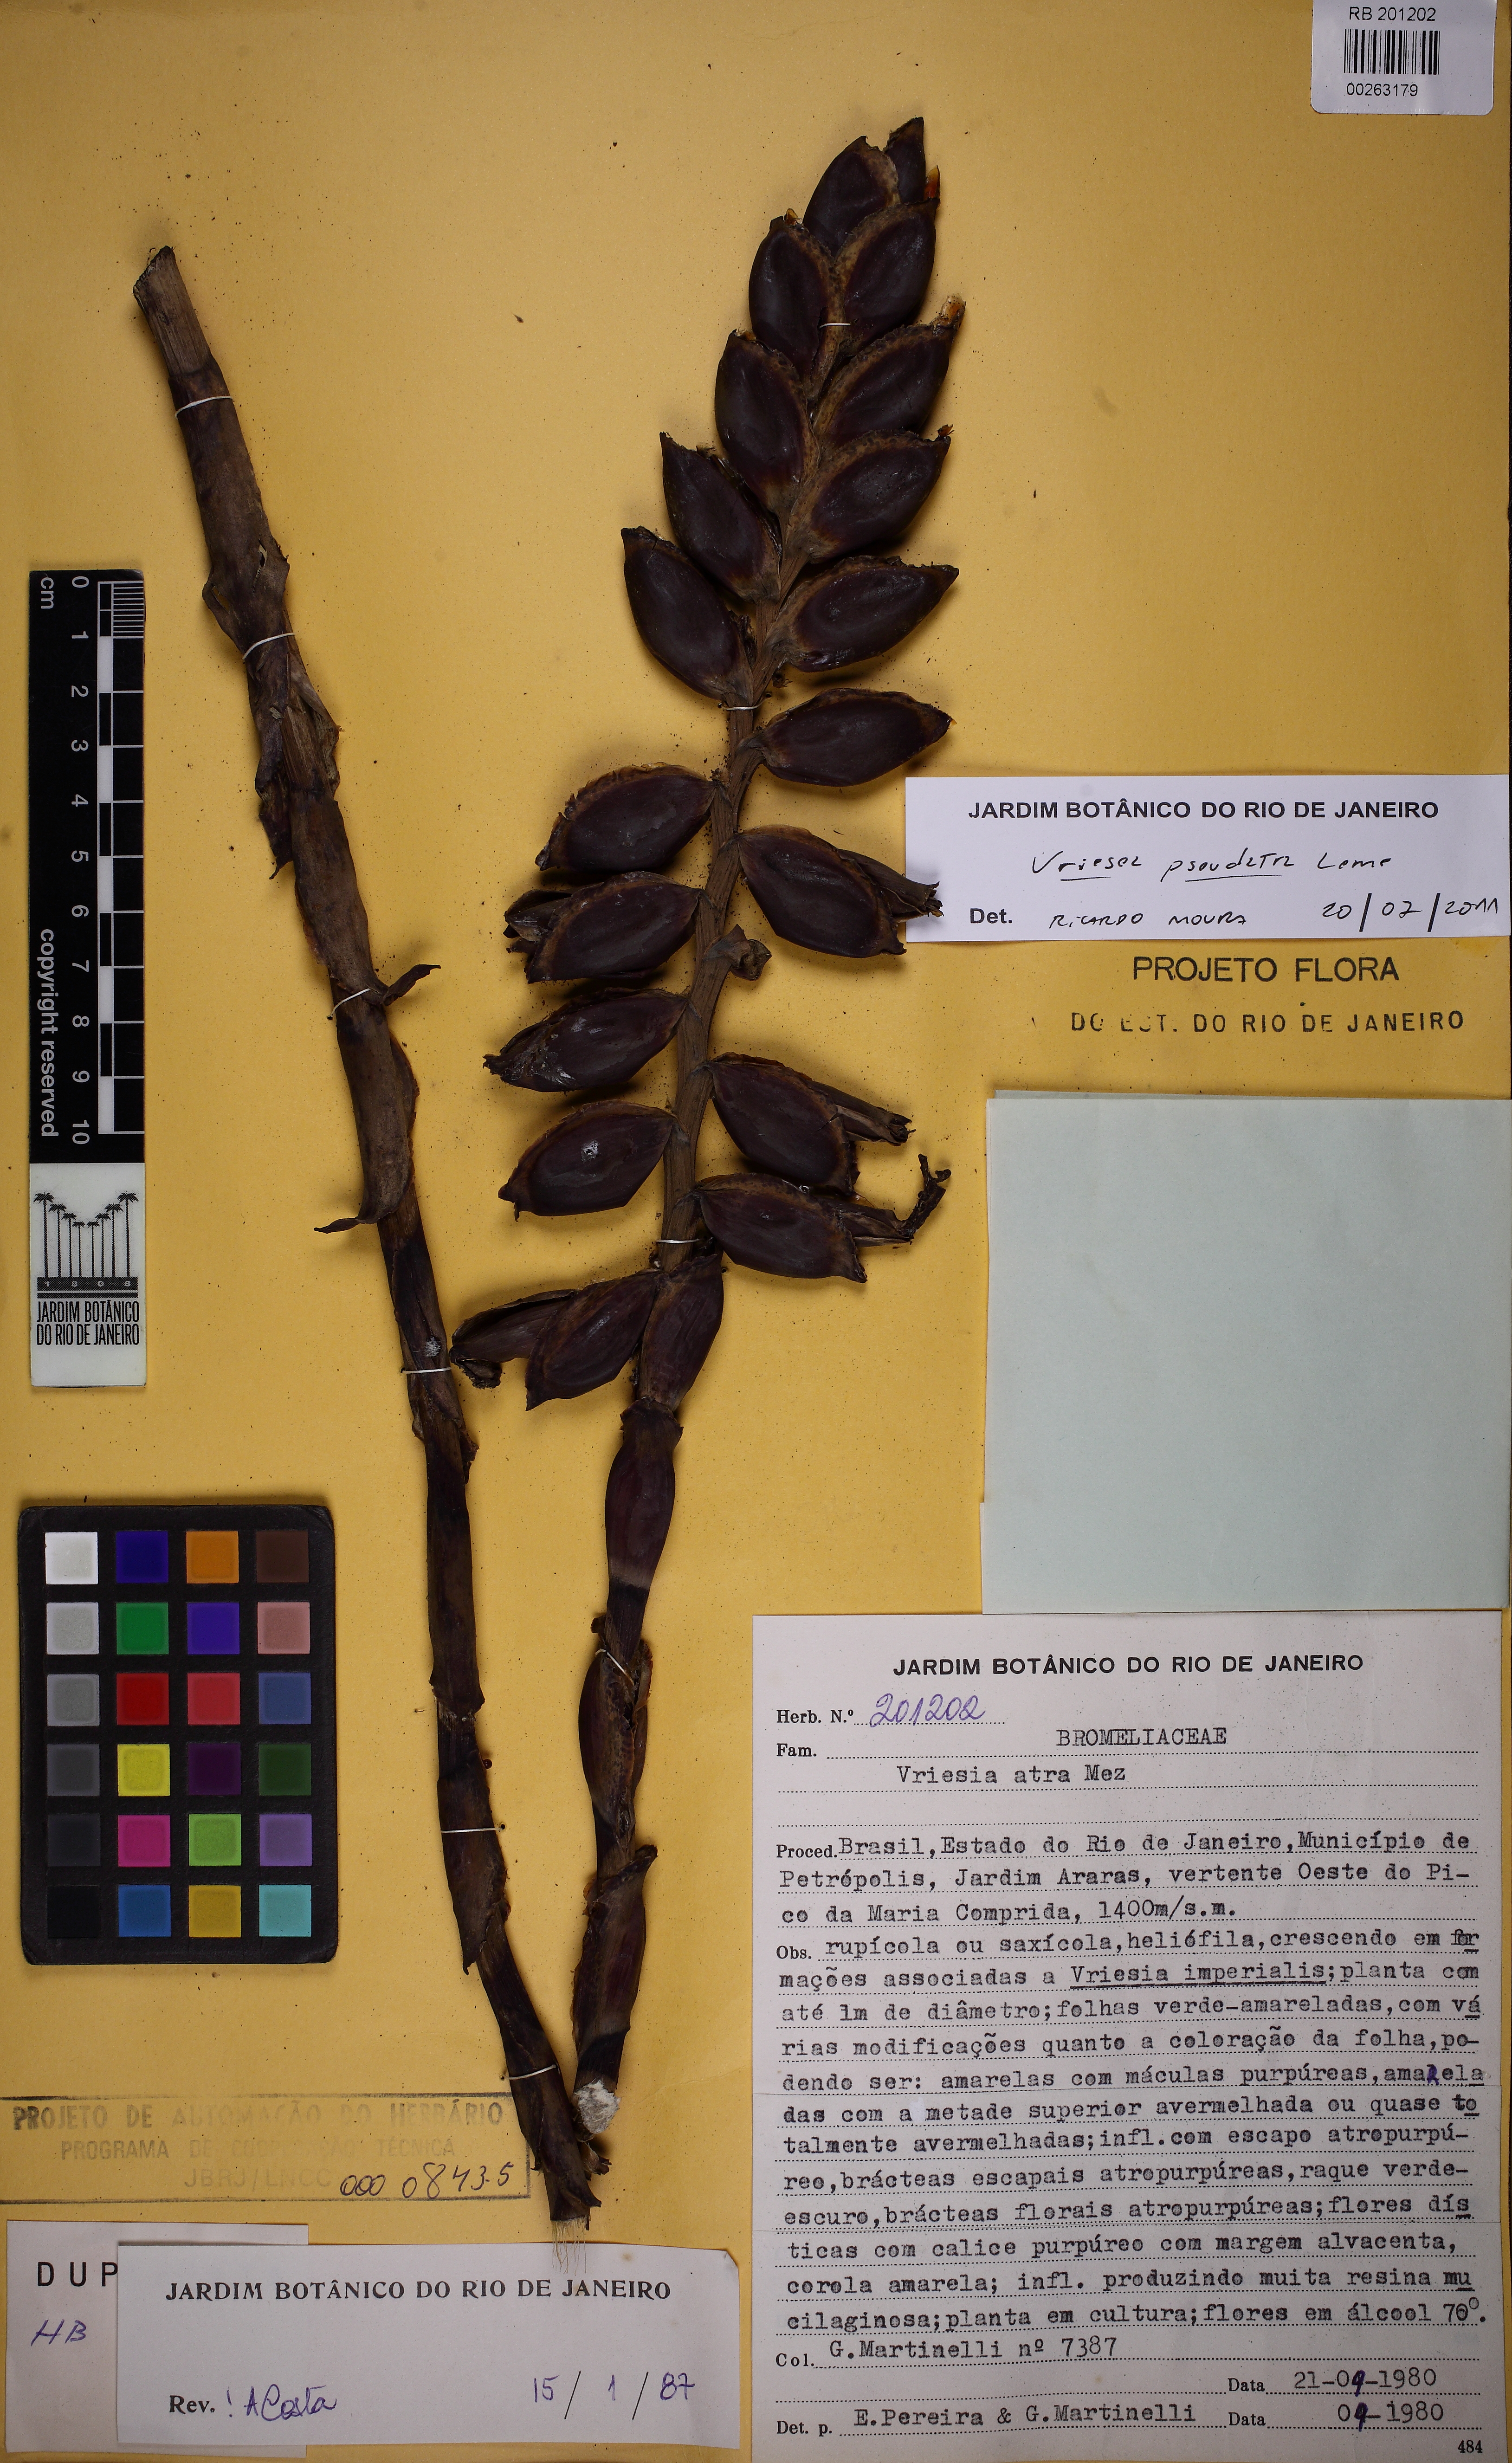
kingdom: Plantae
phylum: Tracheophyta
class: Liliopsida
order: Poales
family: Bromeliaceae
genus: Vriesea
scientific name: Vriesea pseudoatra
